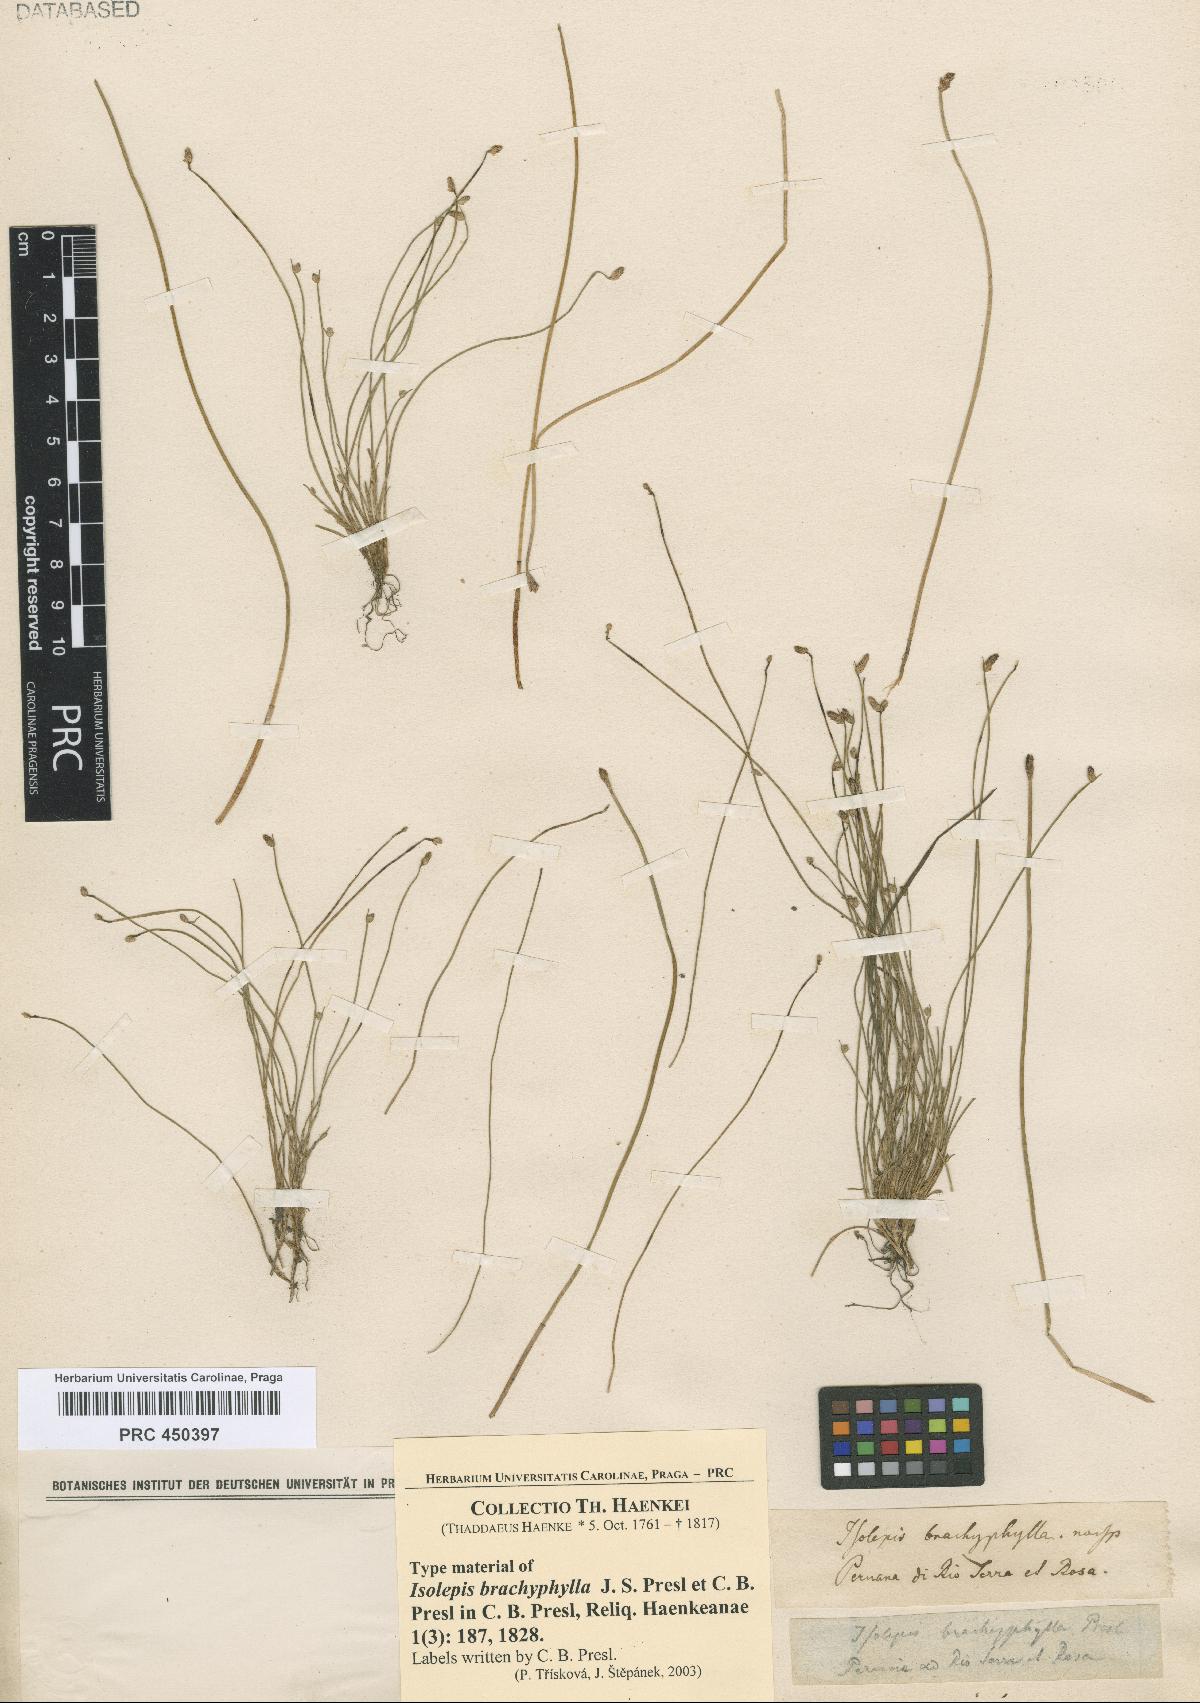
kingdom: Plantae
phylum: Tracheophyta
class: Liliopsida
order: Poales
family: Cyperaceae
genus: Isolepis
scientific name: Isolepis cernua
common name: Slender club-rush
